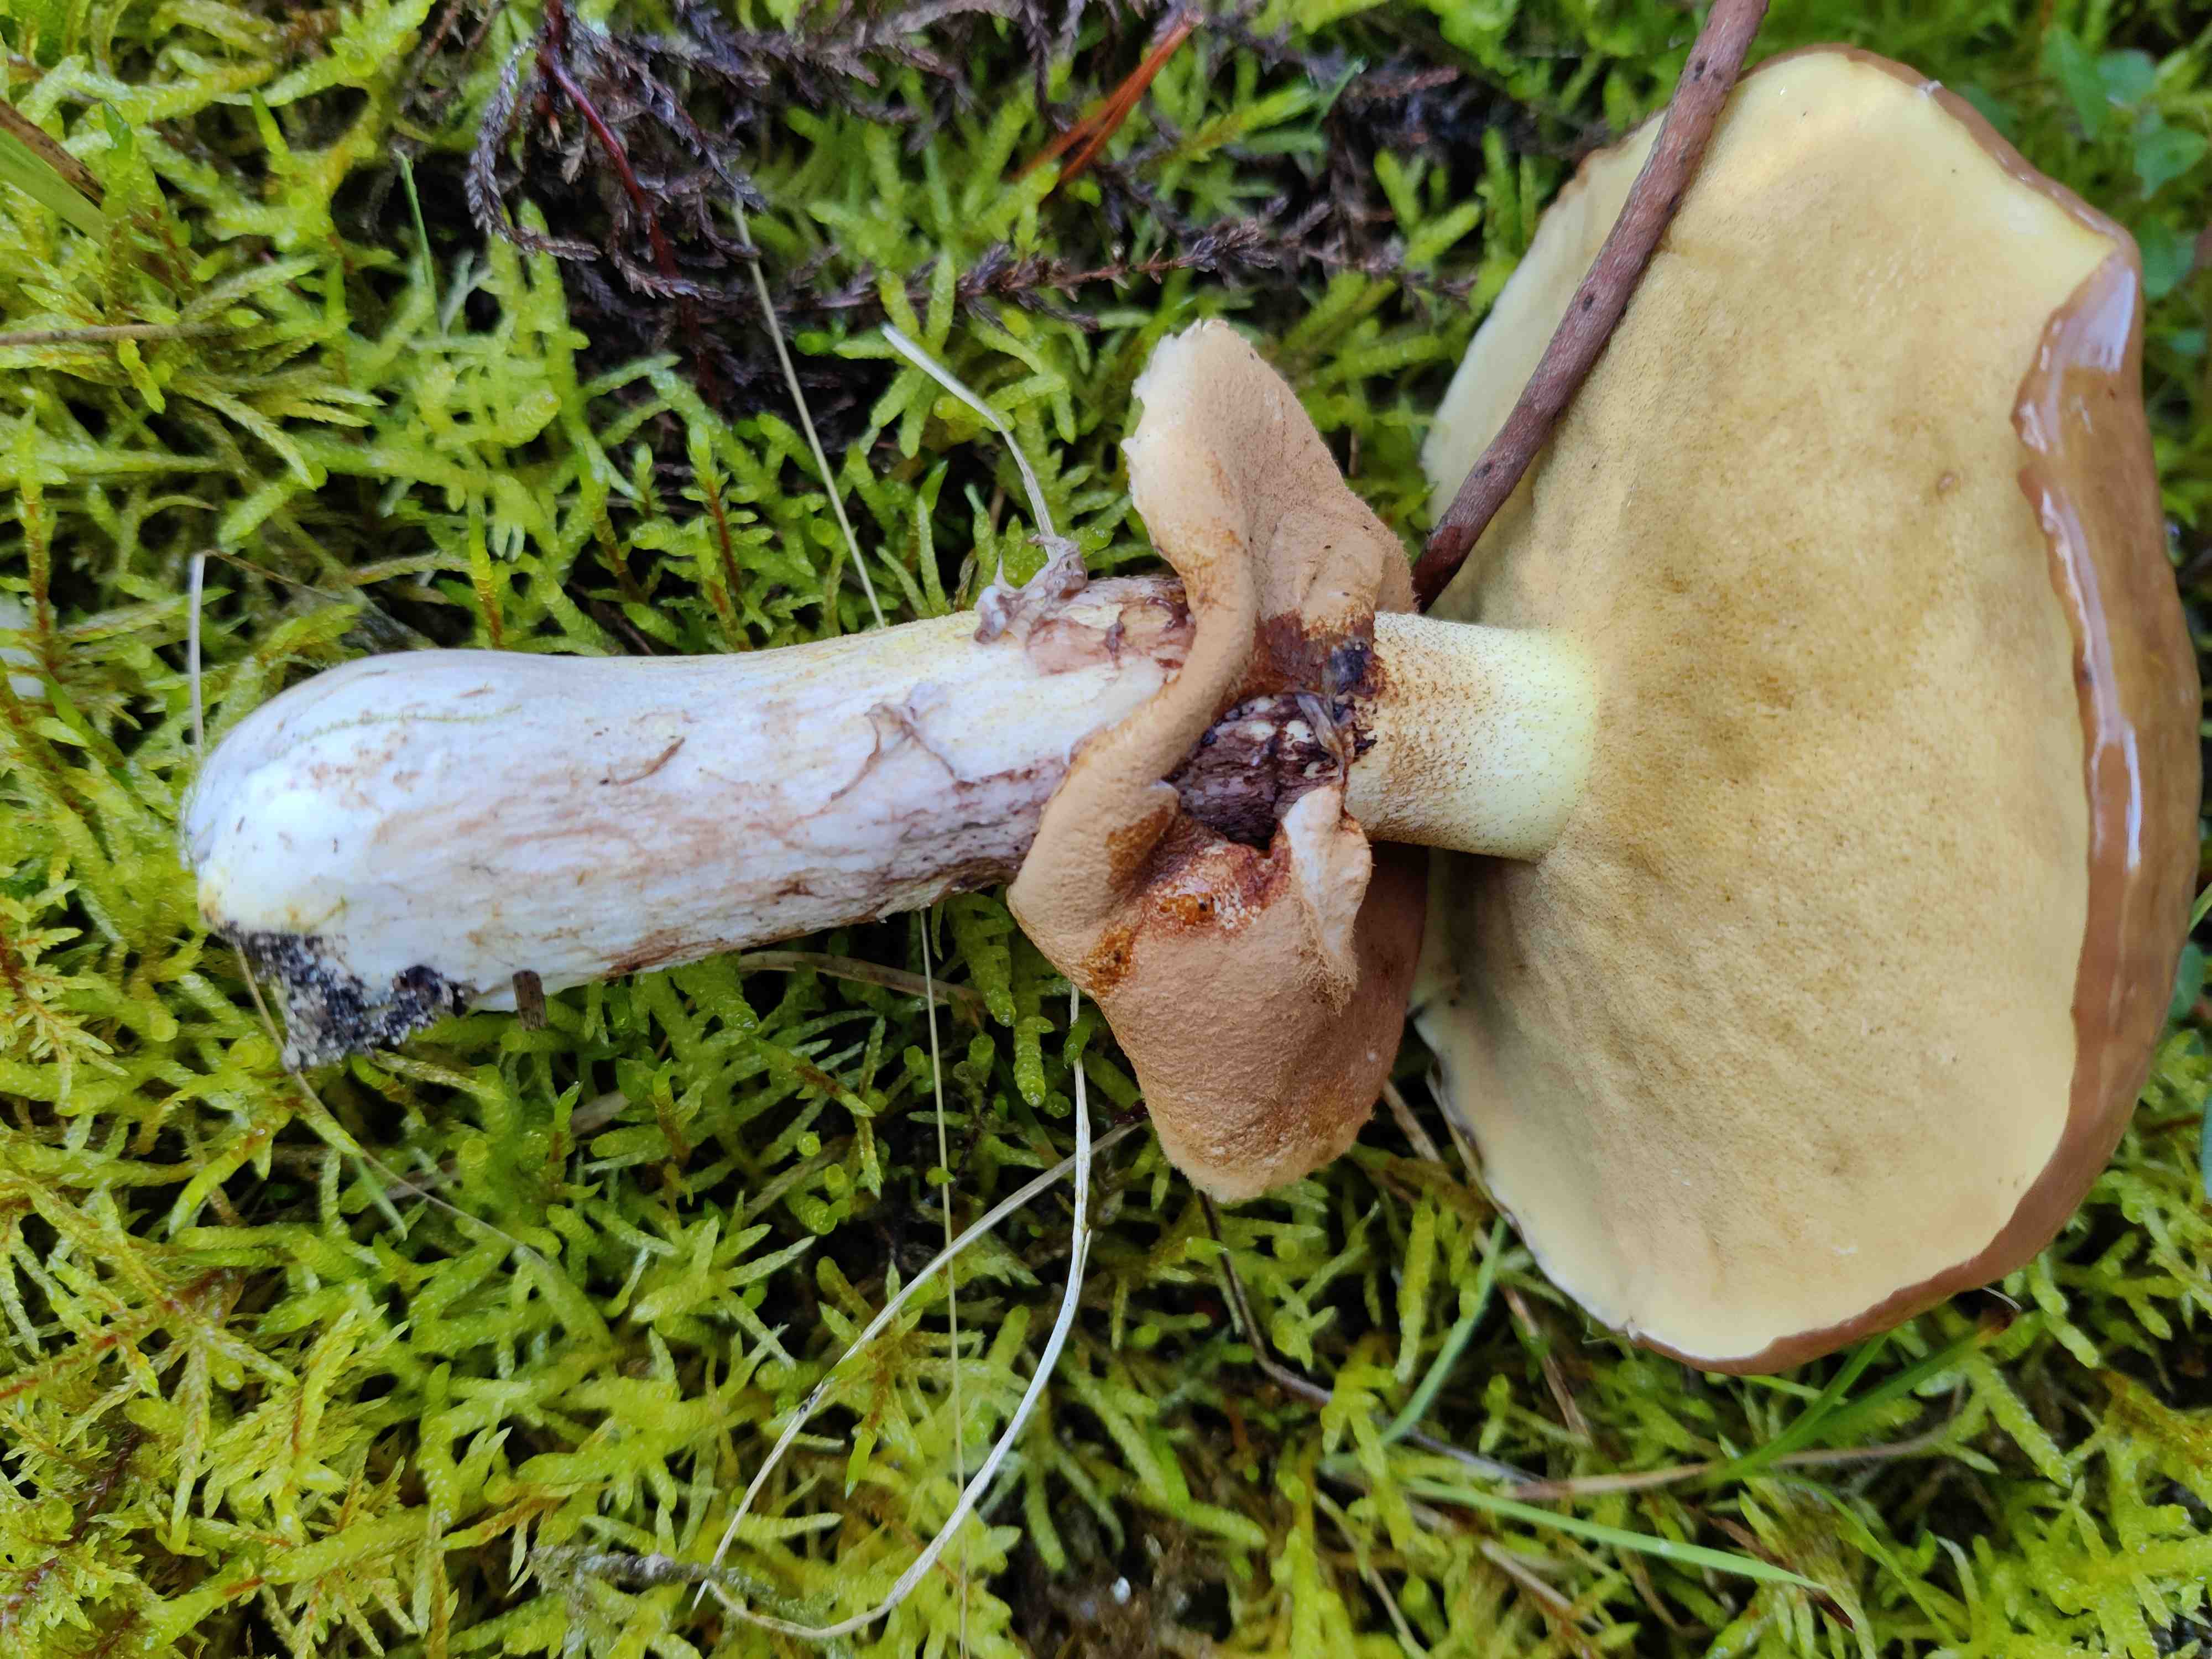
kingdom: Fungi
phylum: Basidiomycota
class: Agaricomycetes
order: Boletales
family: Suillaceae
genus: Suillus
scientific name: Suillus luteus
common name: brungul slimrørhat
